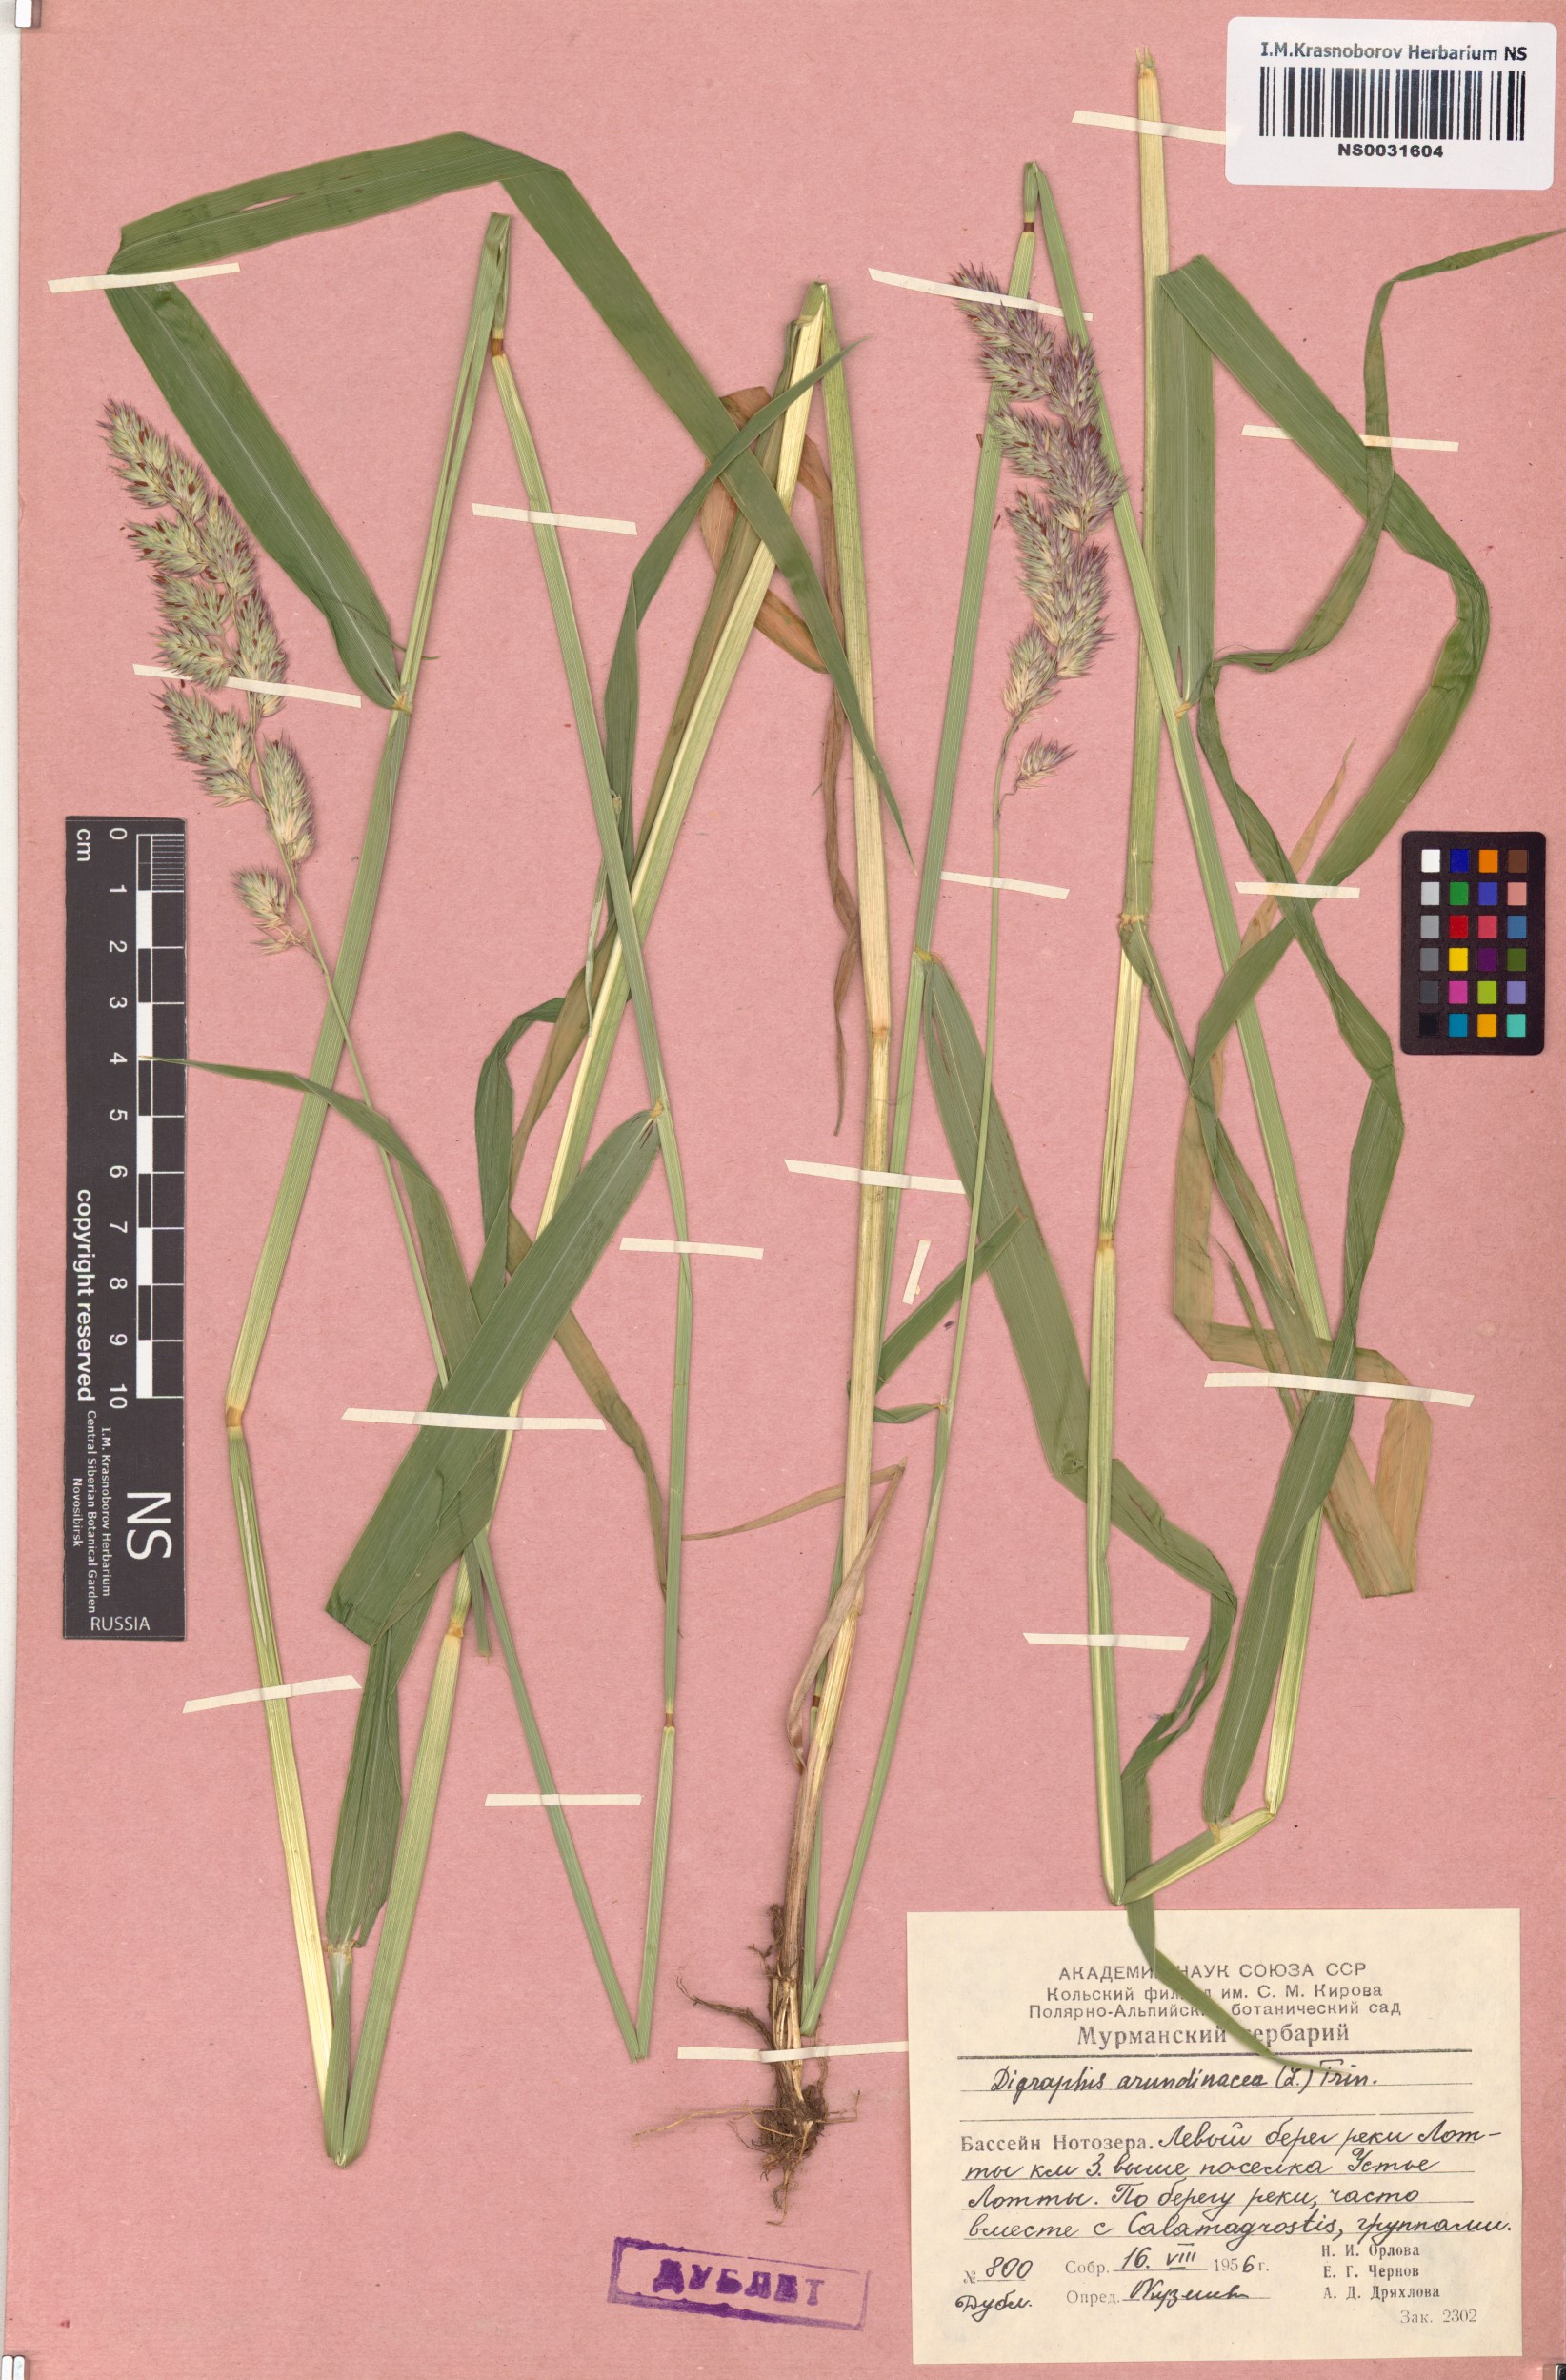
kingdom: Plantae
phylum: Tracheophyta
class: Liliopsida
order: Poales
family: Poaceae
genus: Phalaris
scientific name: Phalaris arundinacea
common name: Reed canary-grass
